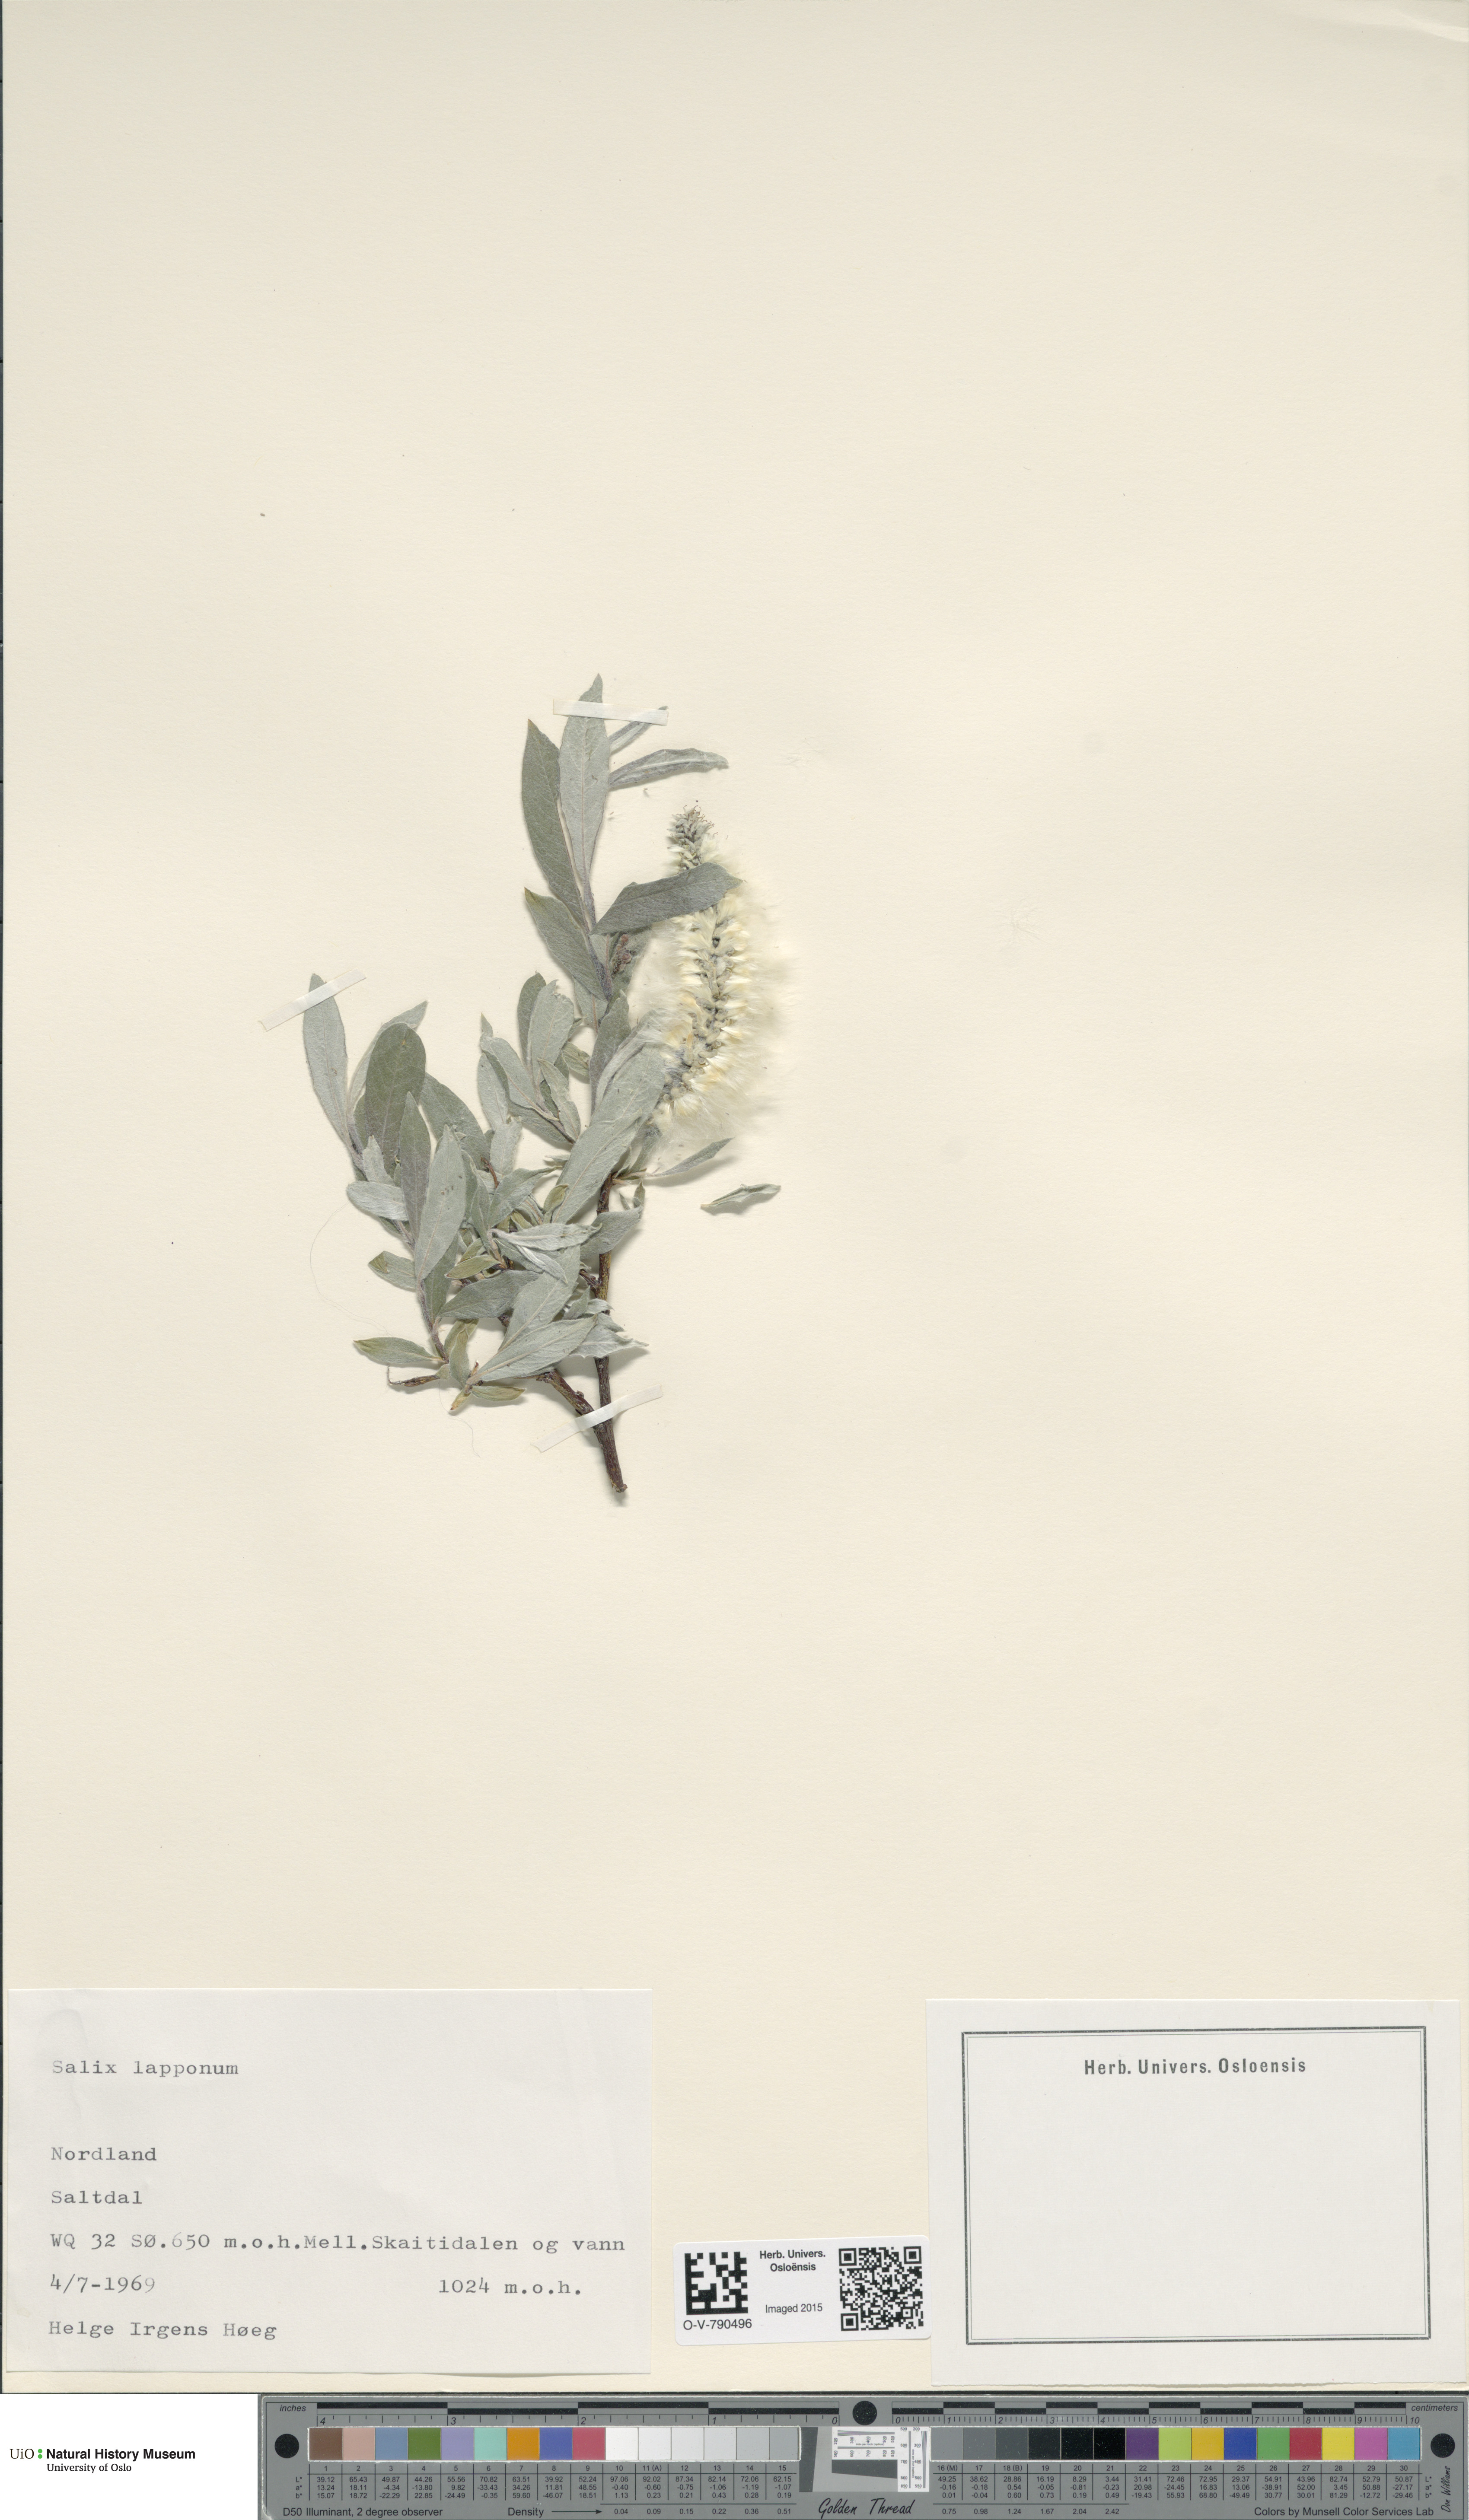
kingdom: Plantae
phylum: Tracheophyta
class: Magnoliopsida
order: Malpighiales
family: Salicaceae
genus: Salix
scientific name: Salix lapponum
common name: Downy willow
